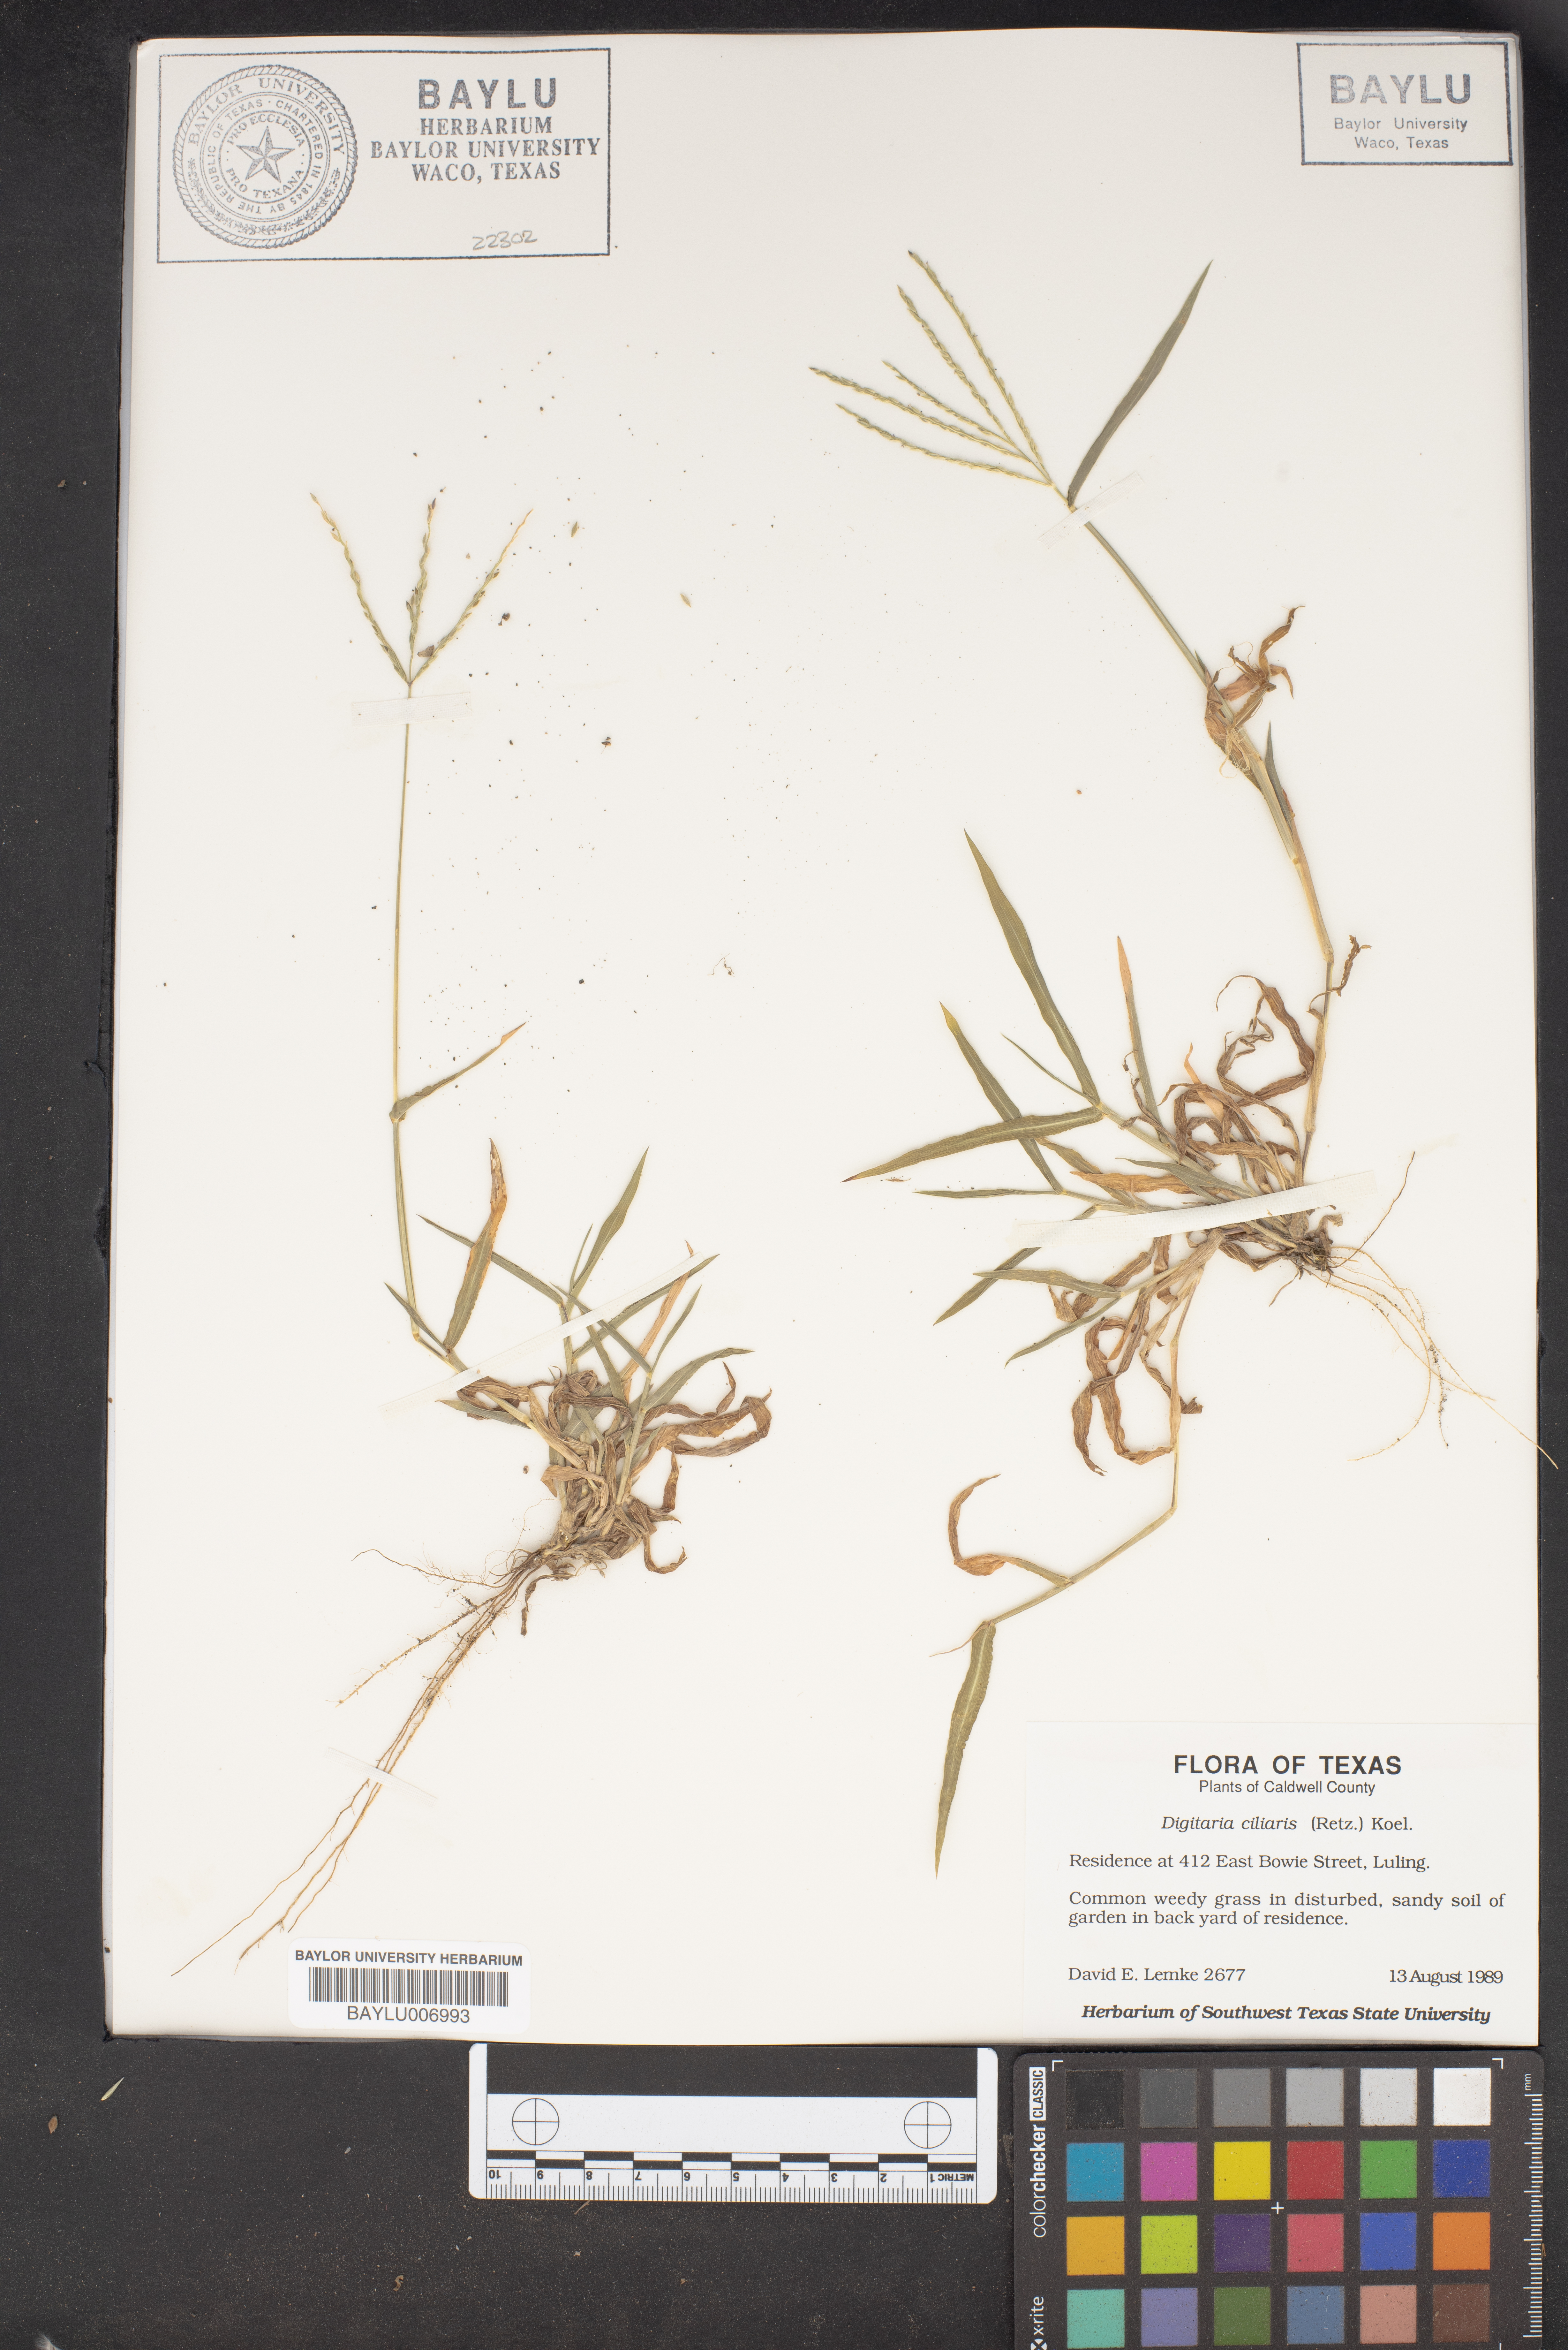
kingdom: Plantae
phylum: Tracheophyta
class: Liliopsida
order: Poales
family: Poaceae
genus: Digitaria
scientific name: Digitaria ciliaris
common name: Tropical finger-grass
